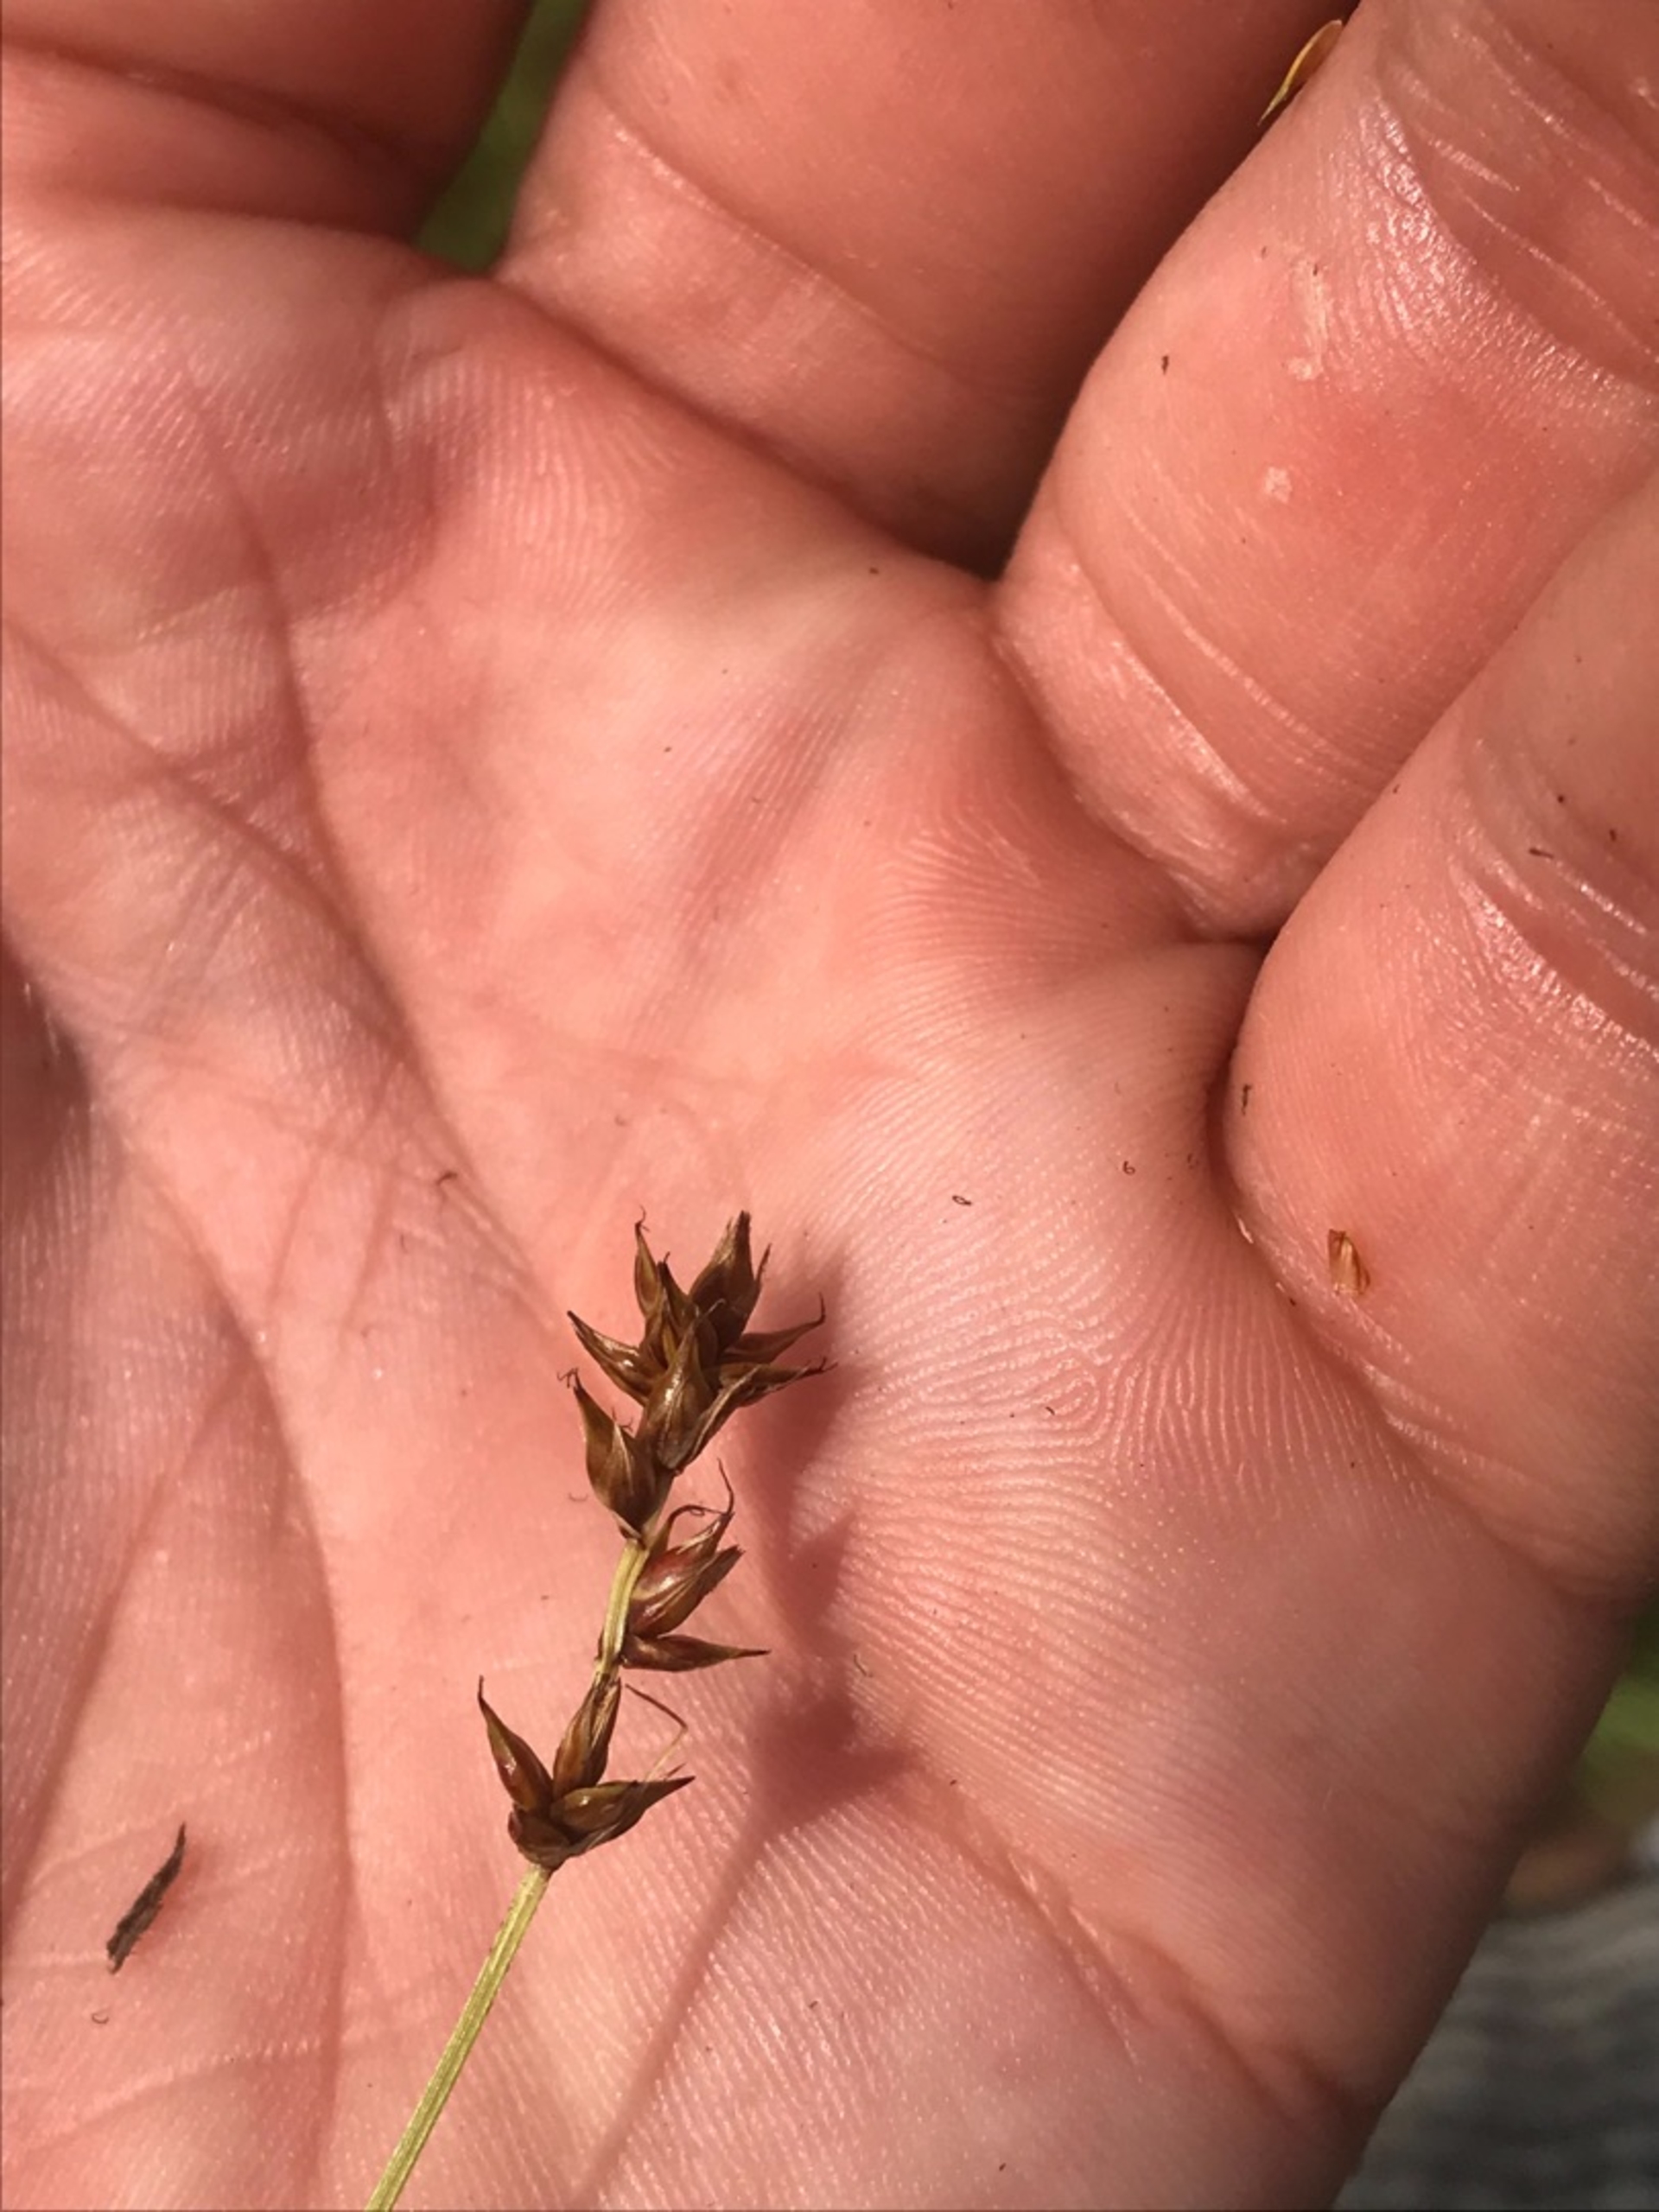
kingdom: Plantae
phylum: Tracheophyta
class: Liliopsida
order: Poales
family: Cyperaceae
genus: Carex
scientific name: Carex spicata
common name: Spidskapslet star
